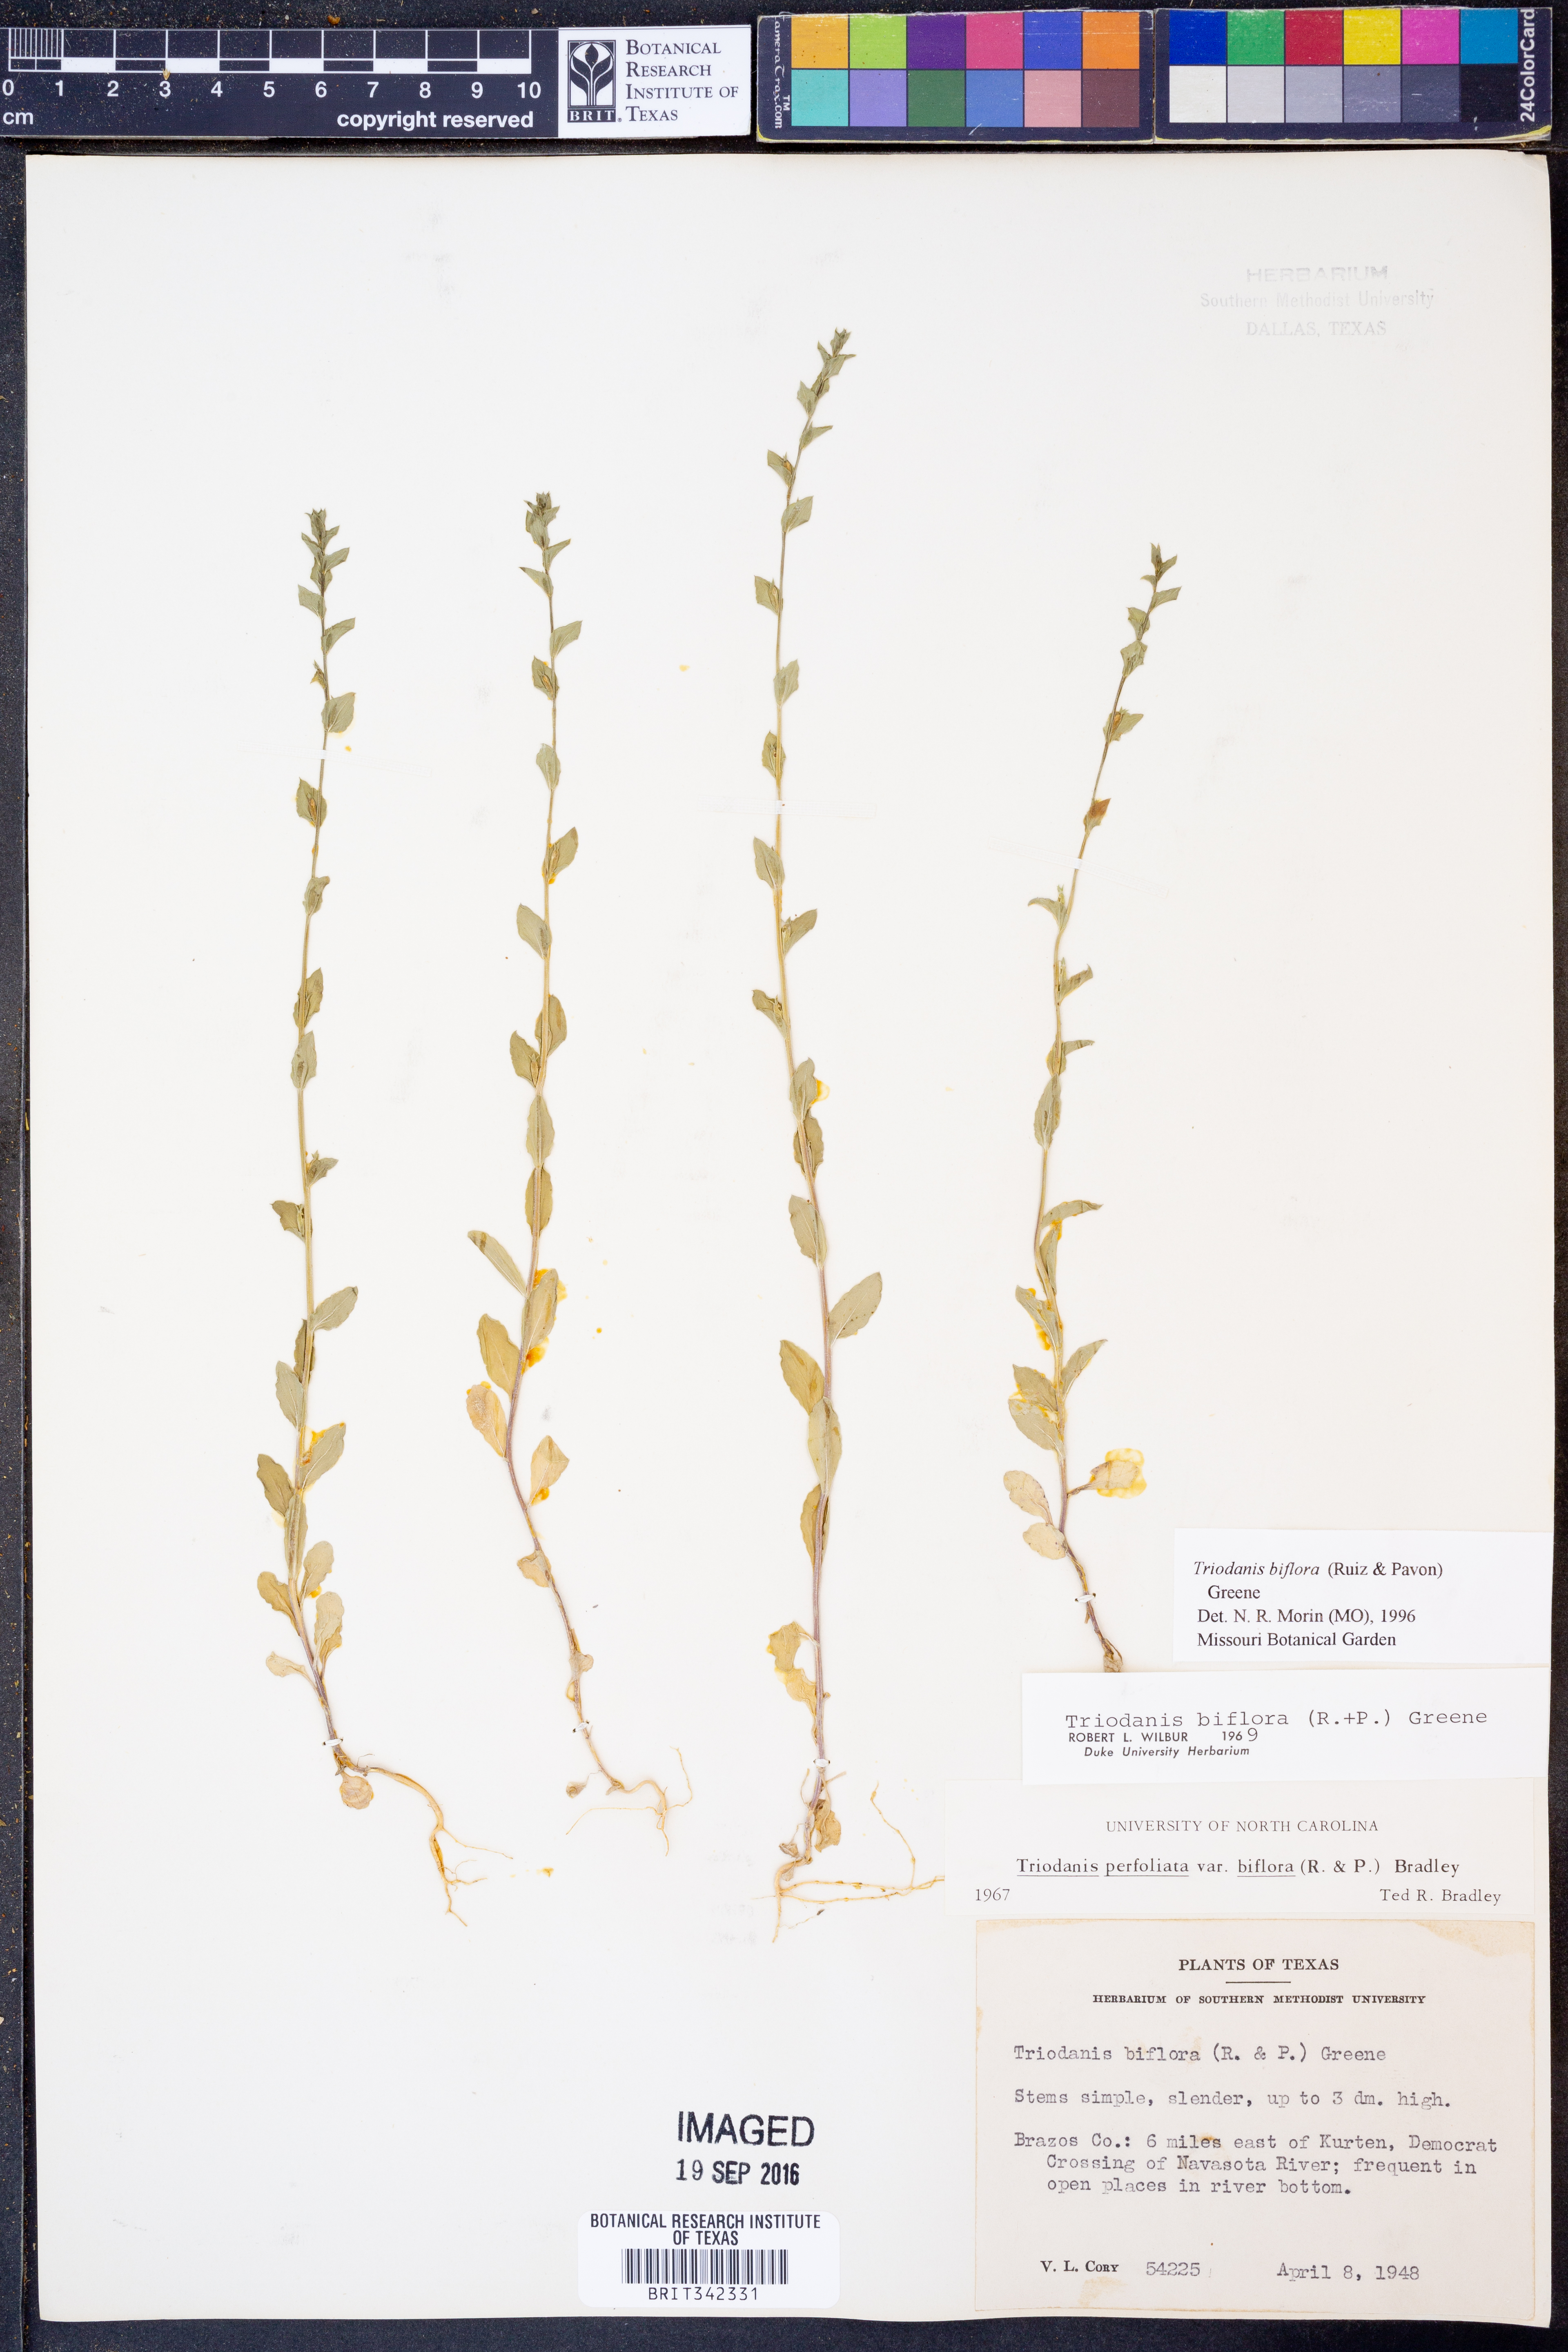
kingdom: Plantae
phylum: Tracheophyta
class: Magnoliopsida
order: Asterales
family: Campanulaceae
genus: Triodanis
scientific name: Triodanis perfoliata
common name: Clasping venus' looking-glass
